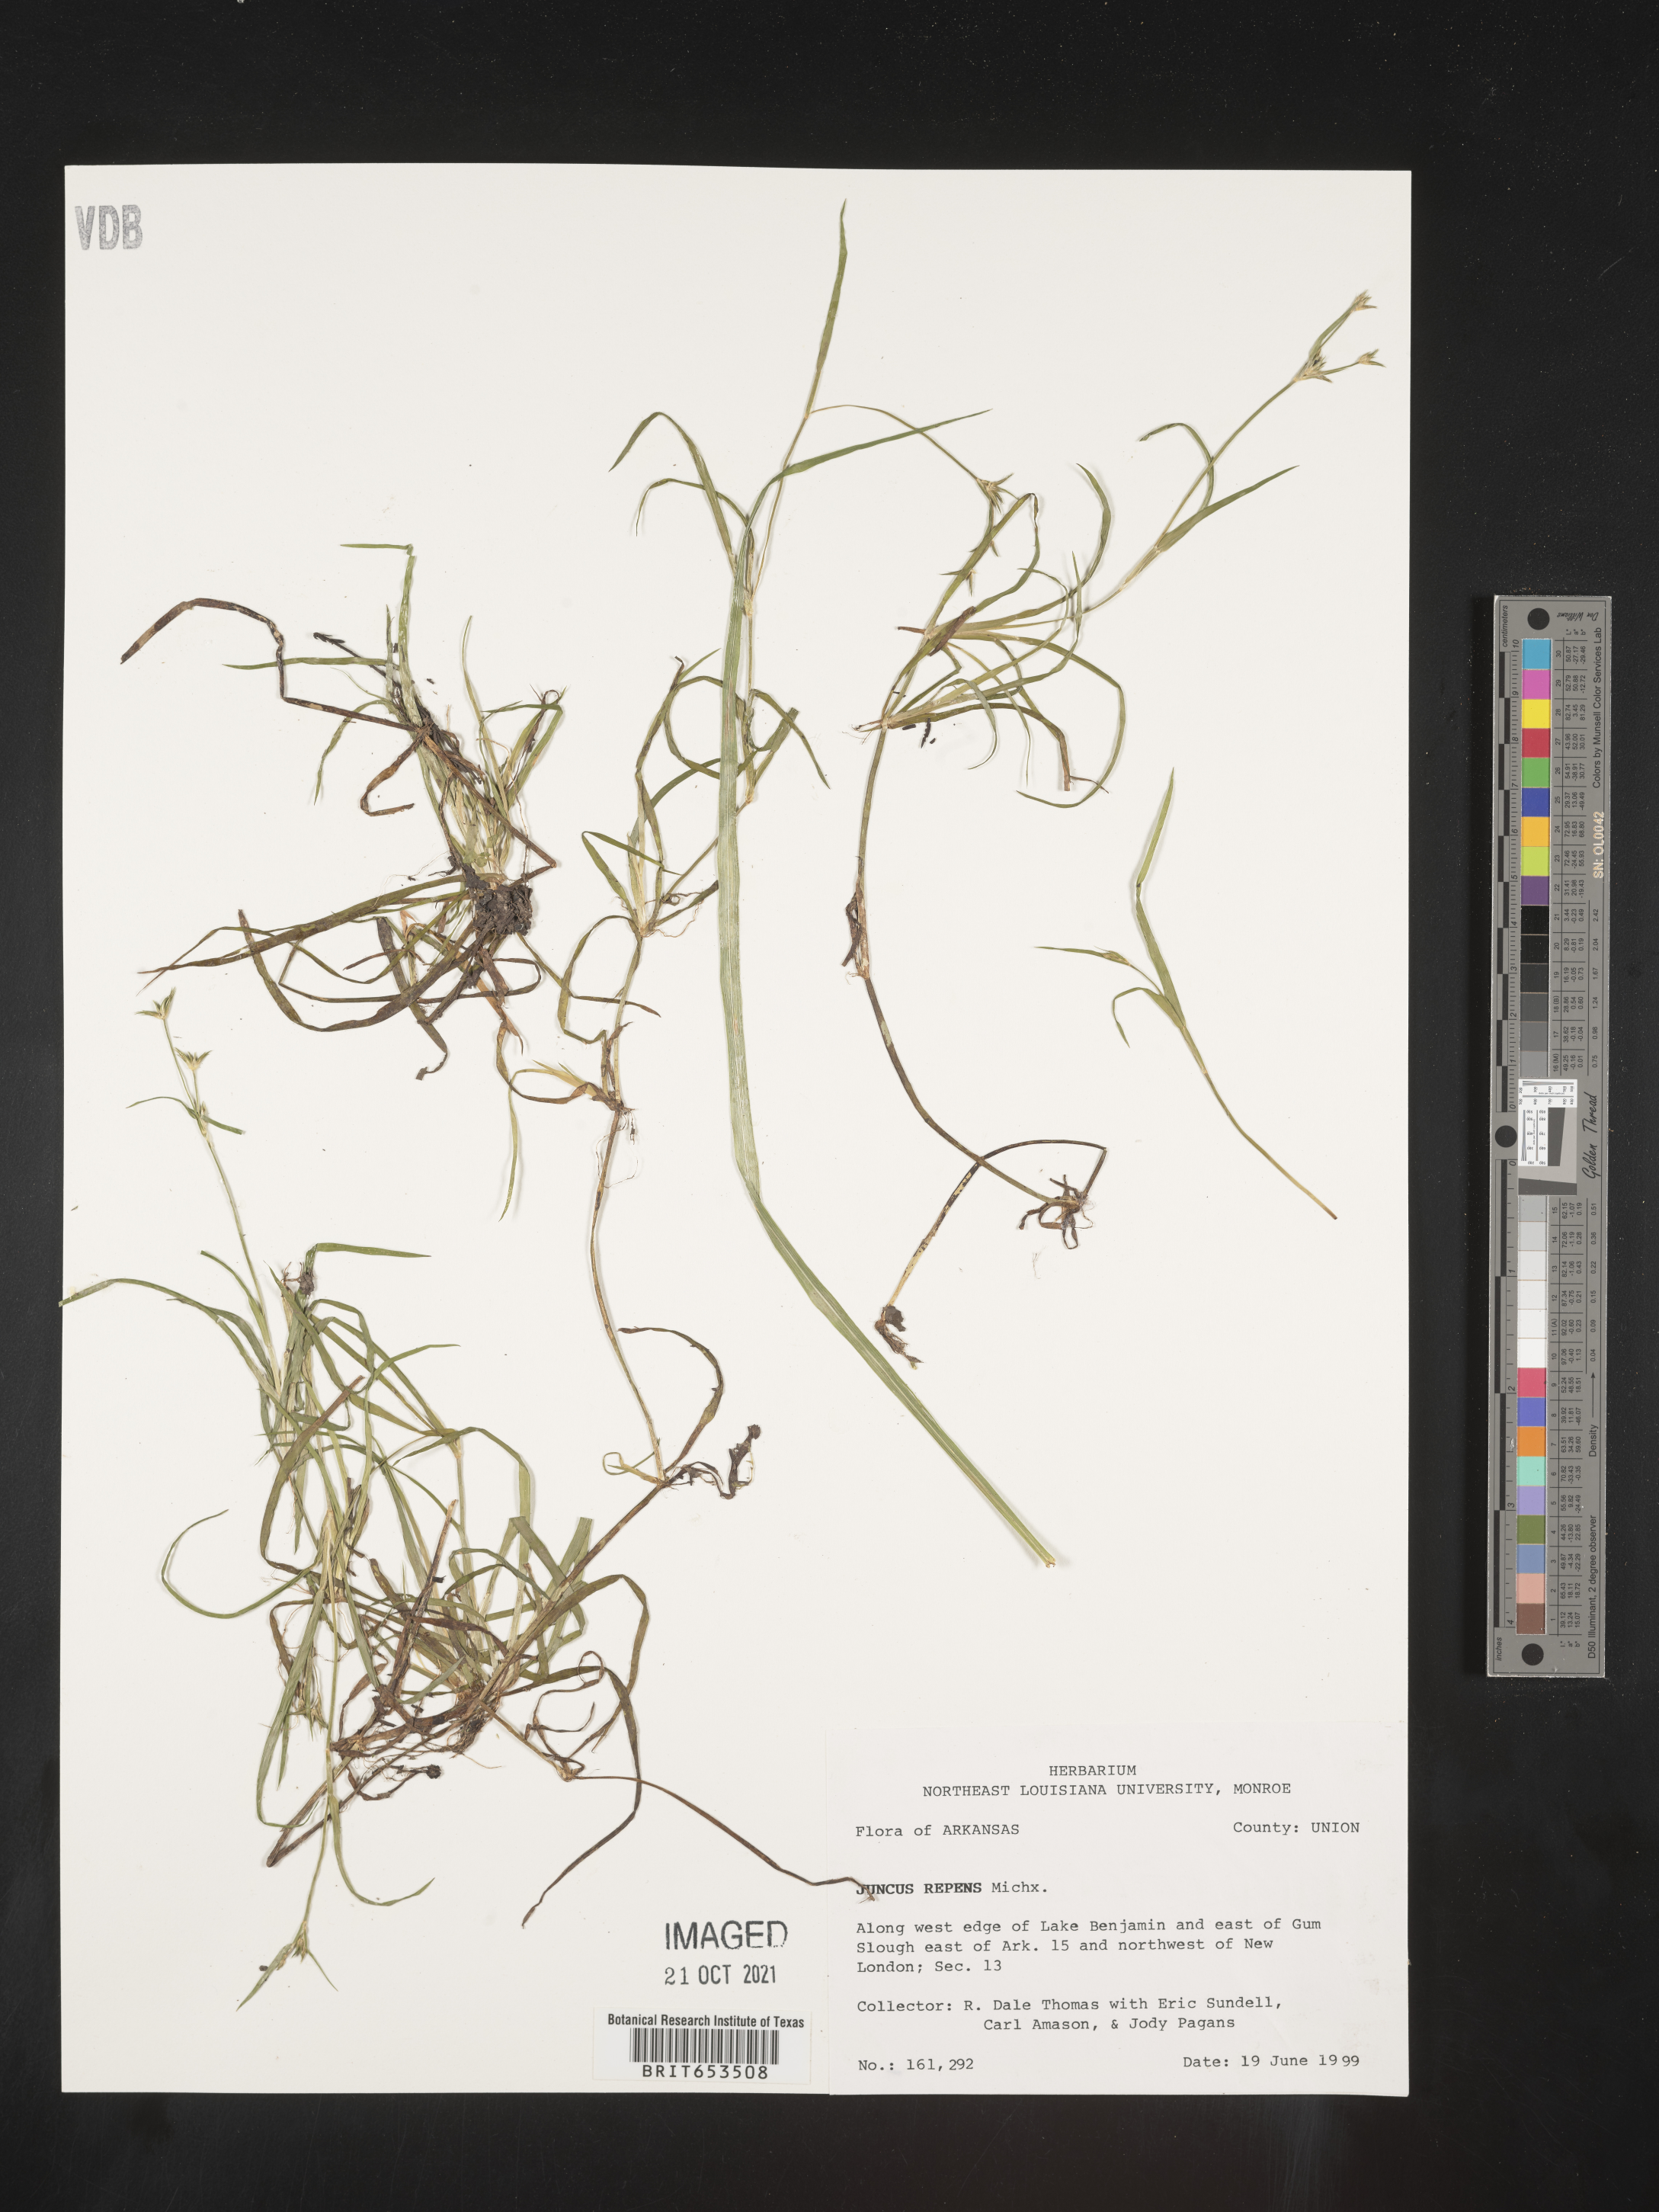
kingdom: Plantae
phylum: Tracheophyta
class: Liliopsida
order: Poales
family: Juncaceae
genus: Juncus
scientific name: Juncus repens
